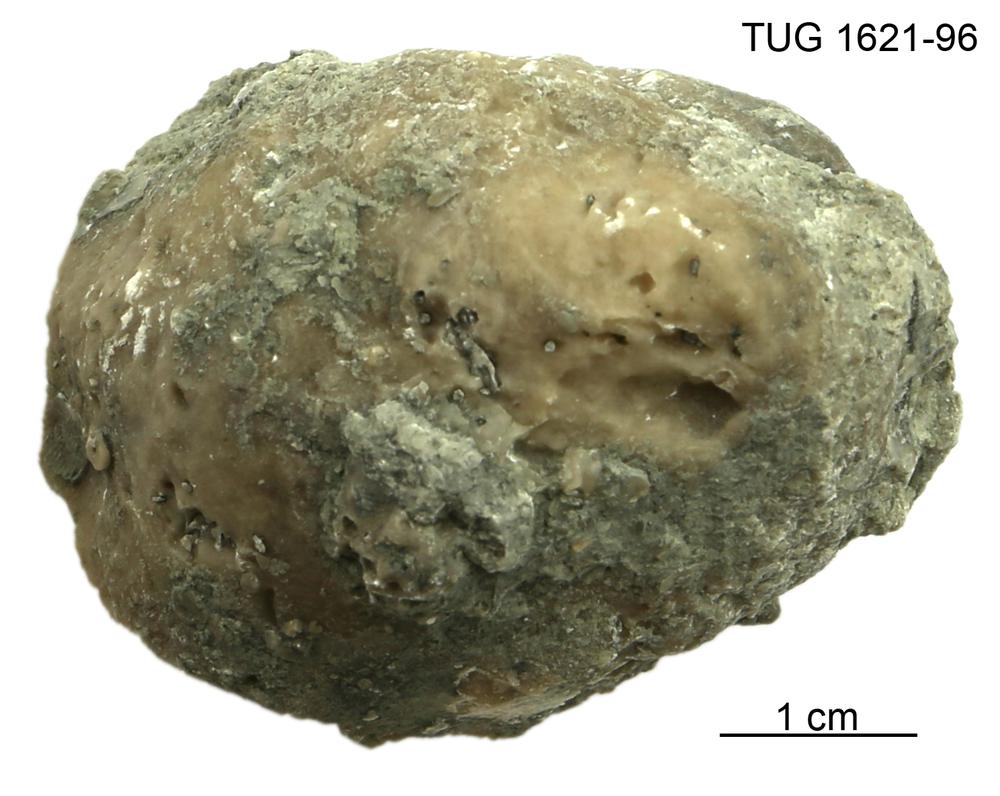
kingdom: Animalia
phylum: Porifera
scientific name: Porifera
